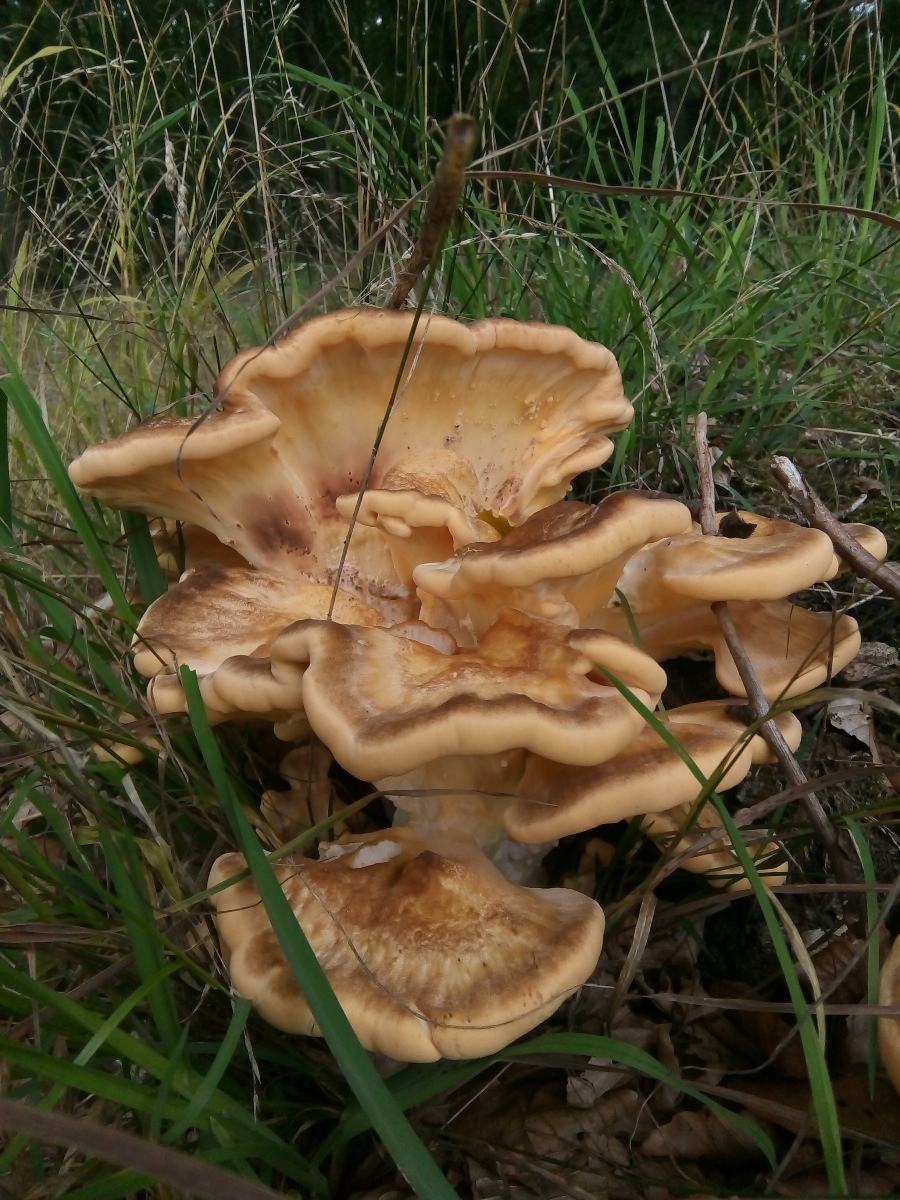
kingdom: Fungi
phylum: Basidiomycota
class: Agaricomycetes
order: Polyporales
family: Meripilaceae
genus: Meripilus
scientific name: Meripilus giganteus
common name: kæmpeporesvamp
